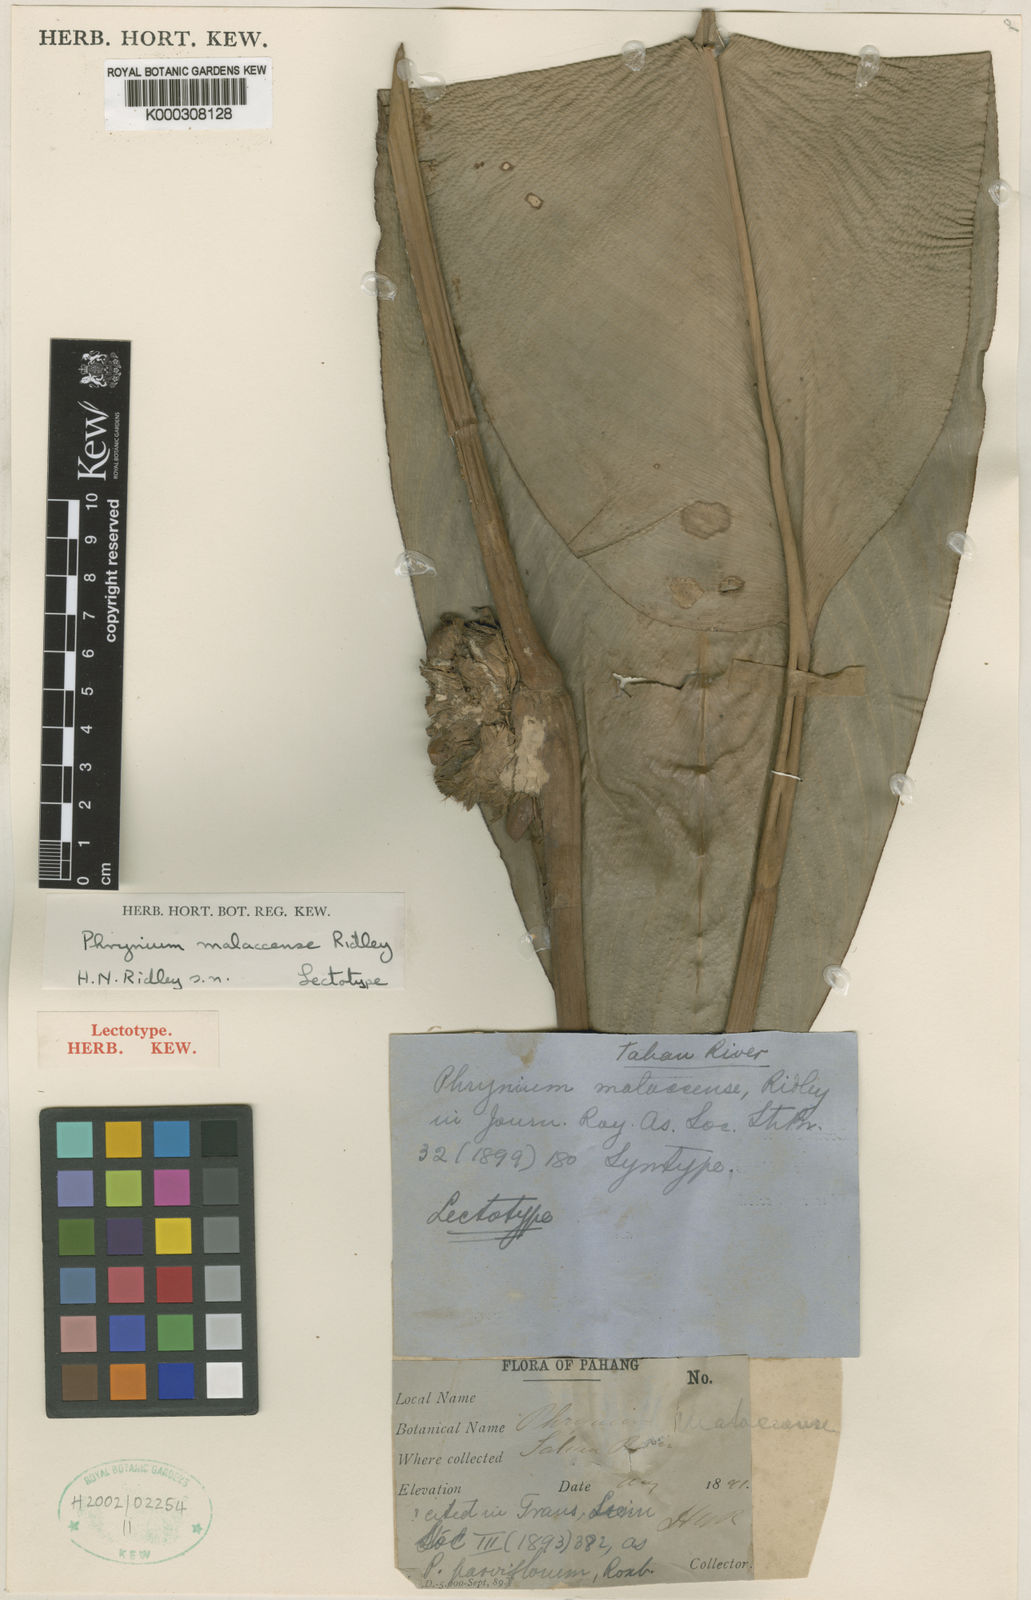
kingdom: Plantae
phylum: Tracheophyta
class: Liliopsida
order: Zingiberales
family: Marantaceae
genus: Phrynium
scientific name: Phrynium pubinerve
